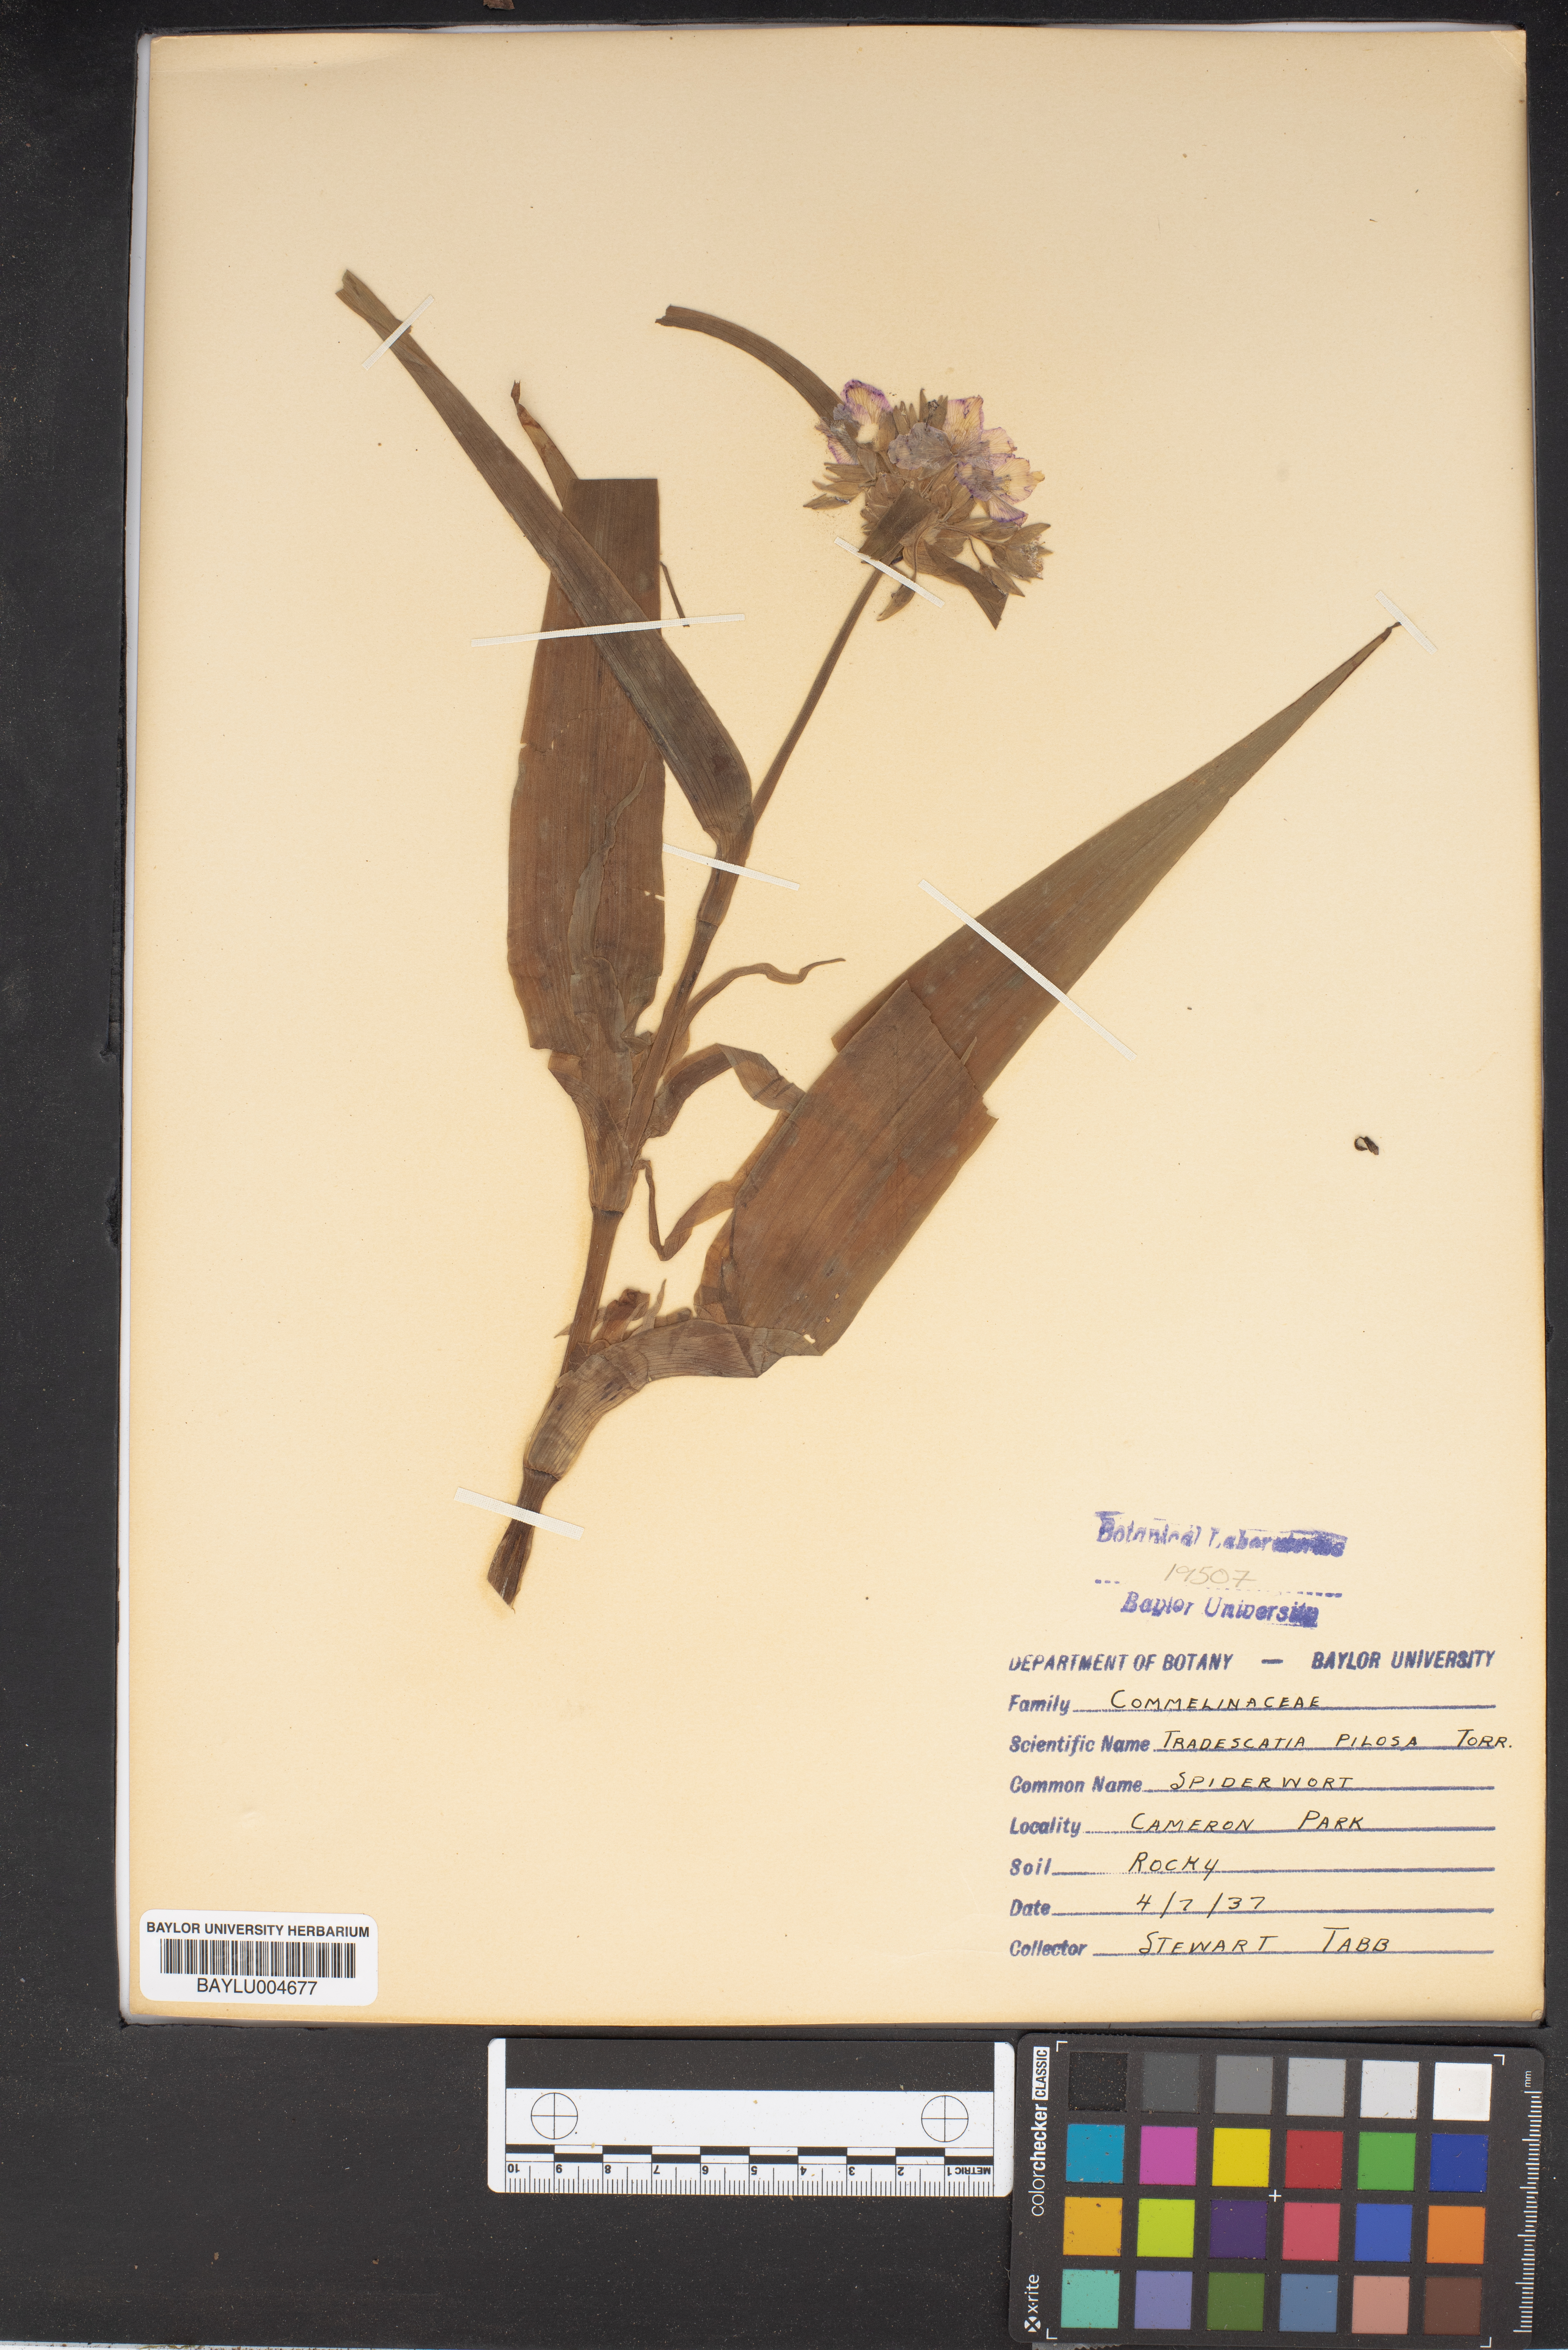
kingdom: Plantae
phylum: Tracheophyta
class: Liliopsida
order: Commelinales
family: Commelinaceae
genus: Tradescantia
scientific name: Tradescantia subaspera
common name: Wide-leaf spiderwort
